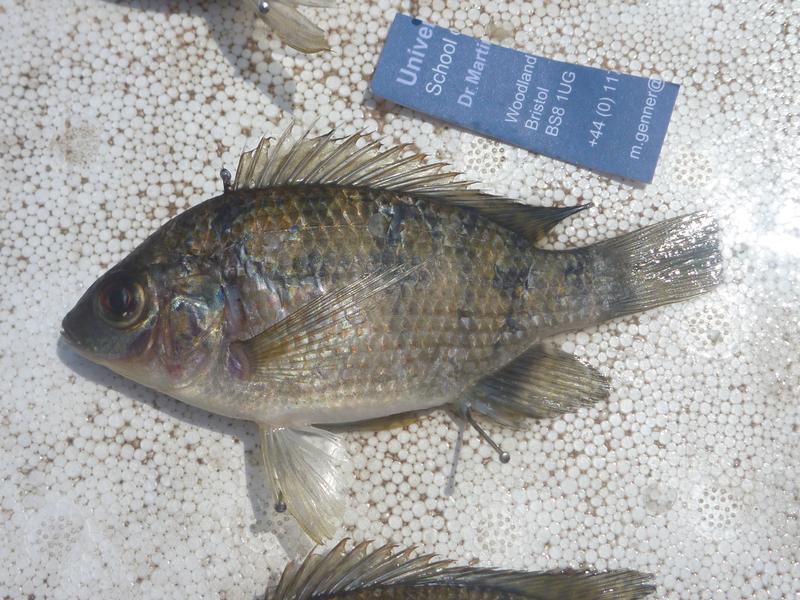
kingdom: Animalia
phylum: Chordata
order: Perciformes
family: Cichlidae
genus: Oreochromis
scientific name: Oreochromis upembae
